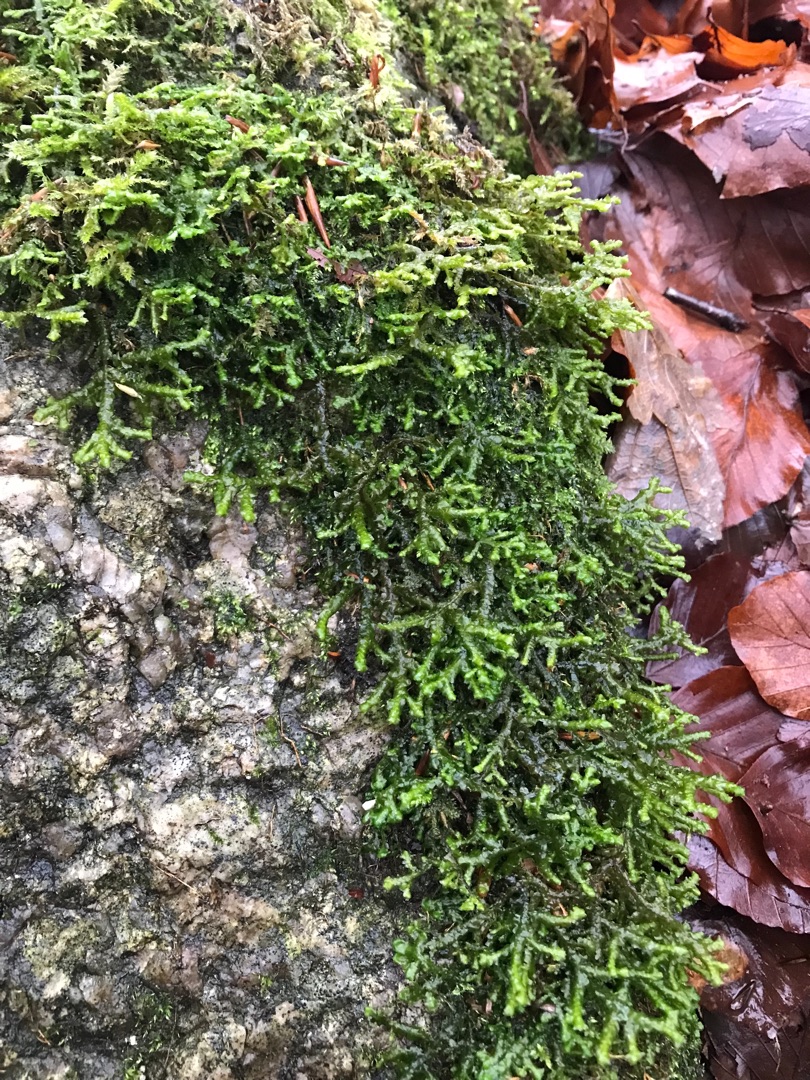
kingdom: Plantae
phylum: Marchantiophyta
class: Jungermanniopsida
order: Porellales
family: Porellaceae
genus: Porella
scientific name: Porella cordaeana
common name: Bæk-skælryg
